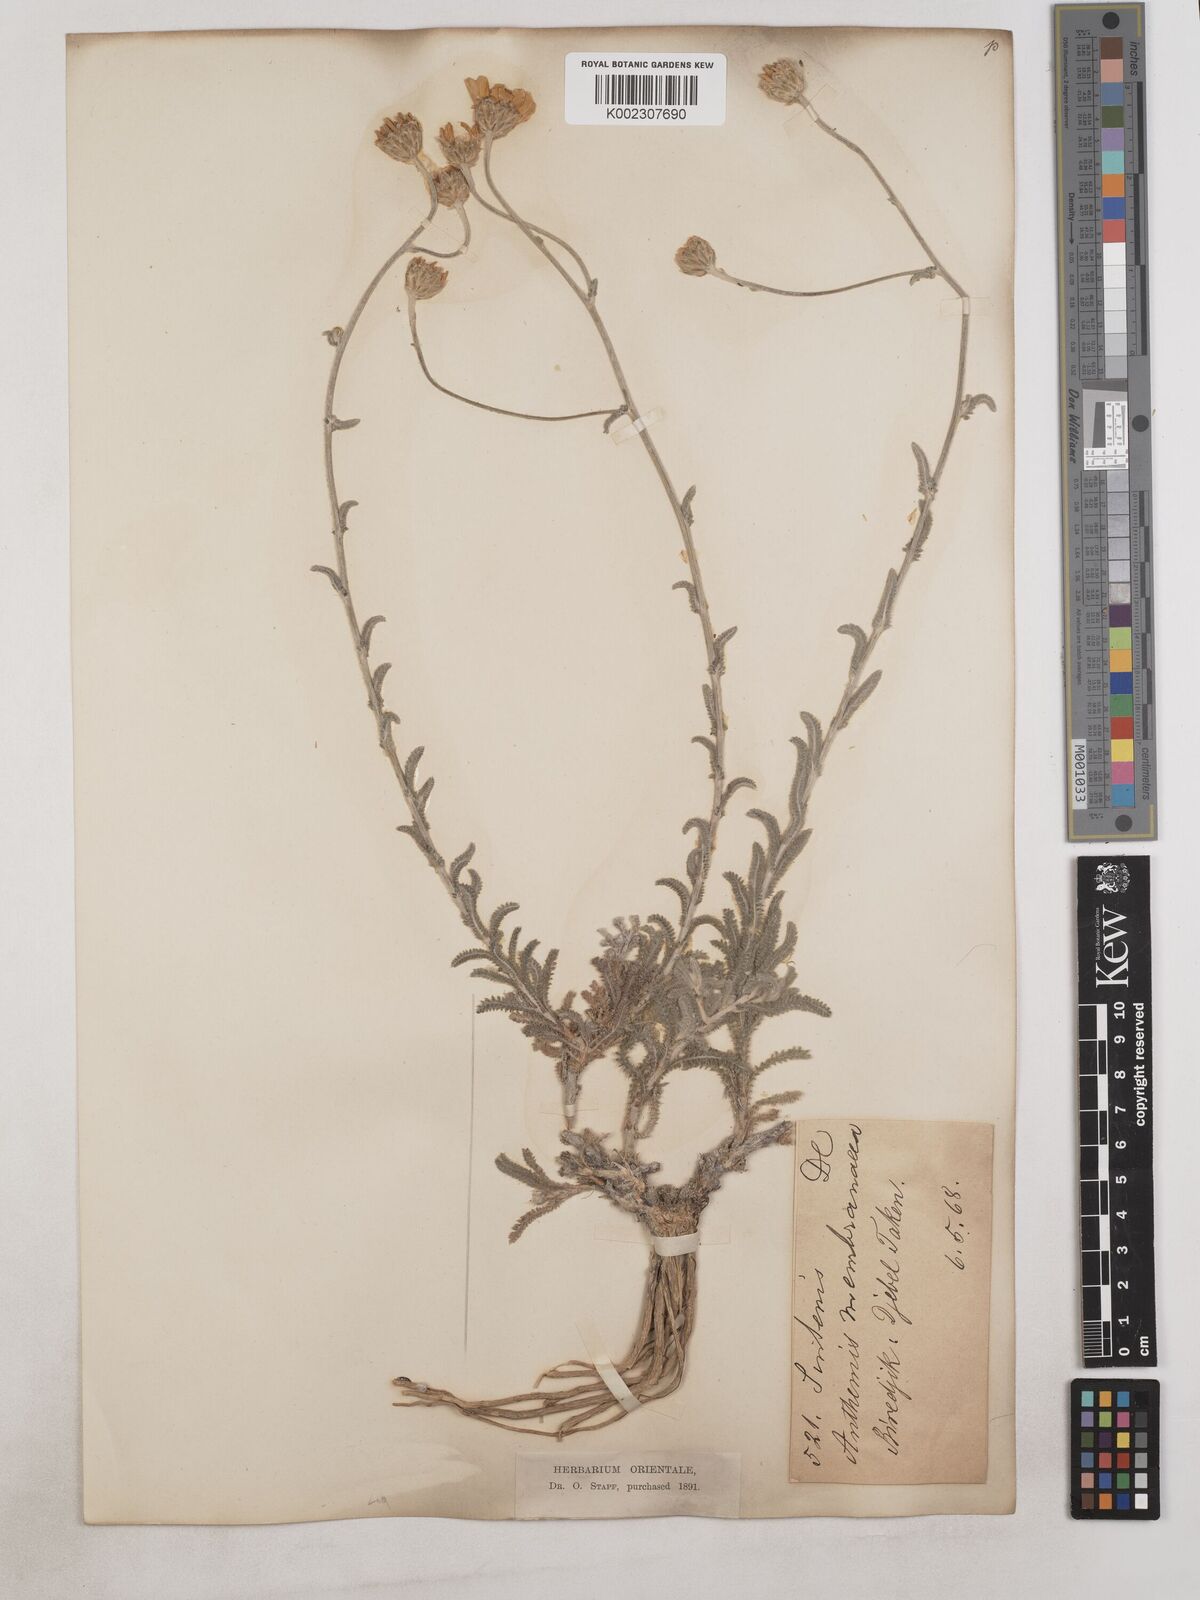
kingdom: Plantae
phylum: Tracheophyta
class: Magnoliopsida
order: Asterales
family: Asteraceae
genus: Achillea
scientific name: Achillea membranacea
